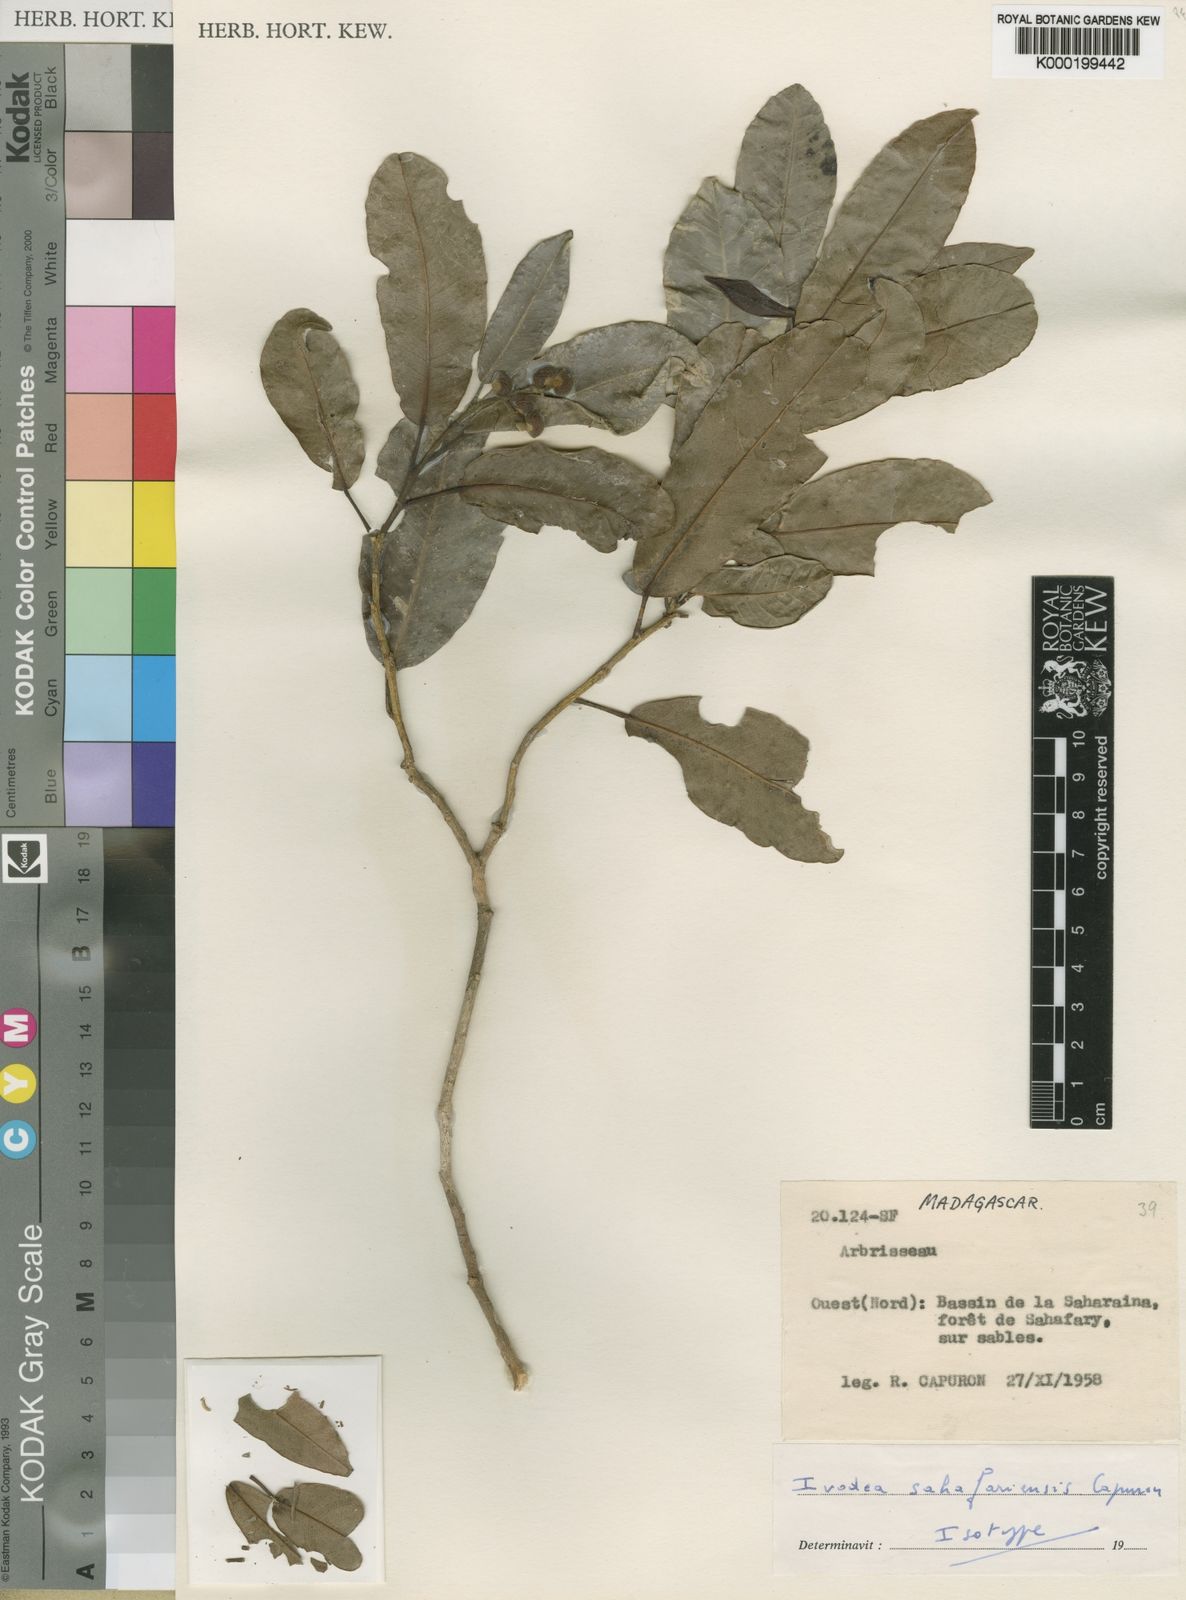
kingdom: Plantae
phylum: Tracheophyta
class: Magnoliopsida
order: Sapindales
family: Rutaceae
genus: Ivodea
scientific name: Ivodea sahafariensis
